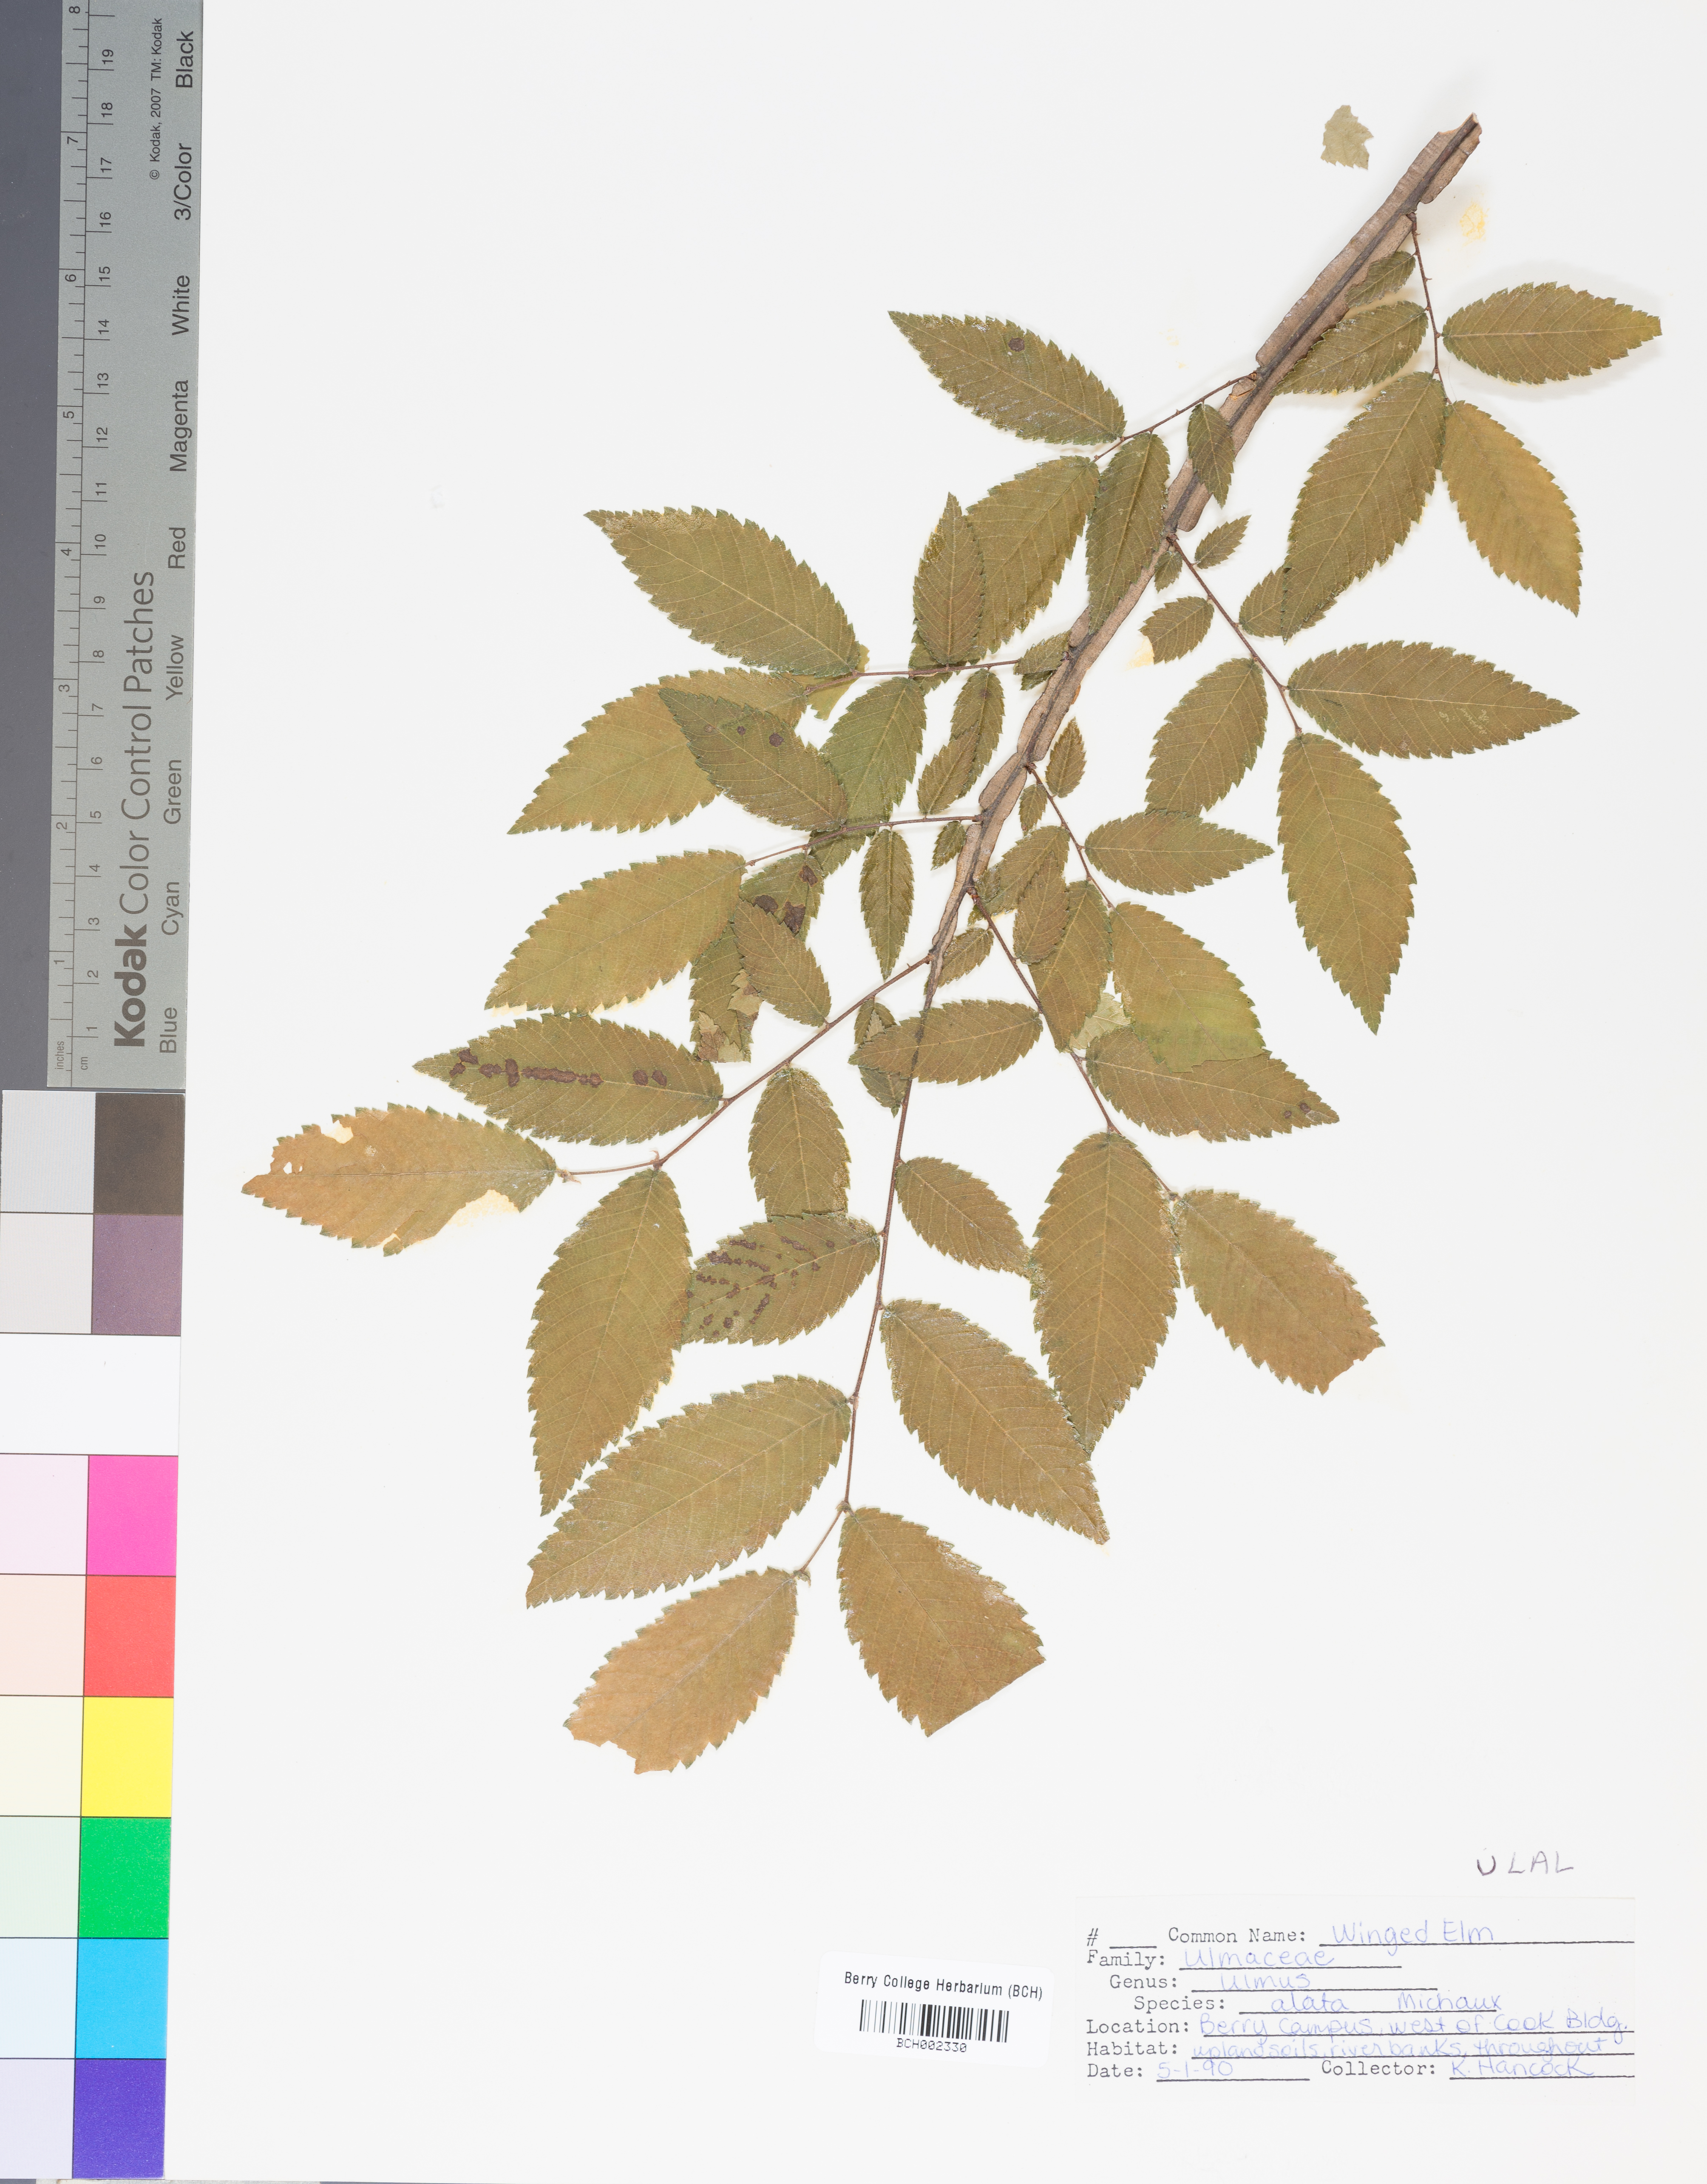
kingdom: Plantae
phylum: Tracheophyta
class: Magnoliopsida
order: Rosales
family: Ulmaceae
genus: Ulmus
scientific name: Ulmus alata
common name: Winged elm
